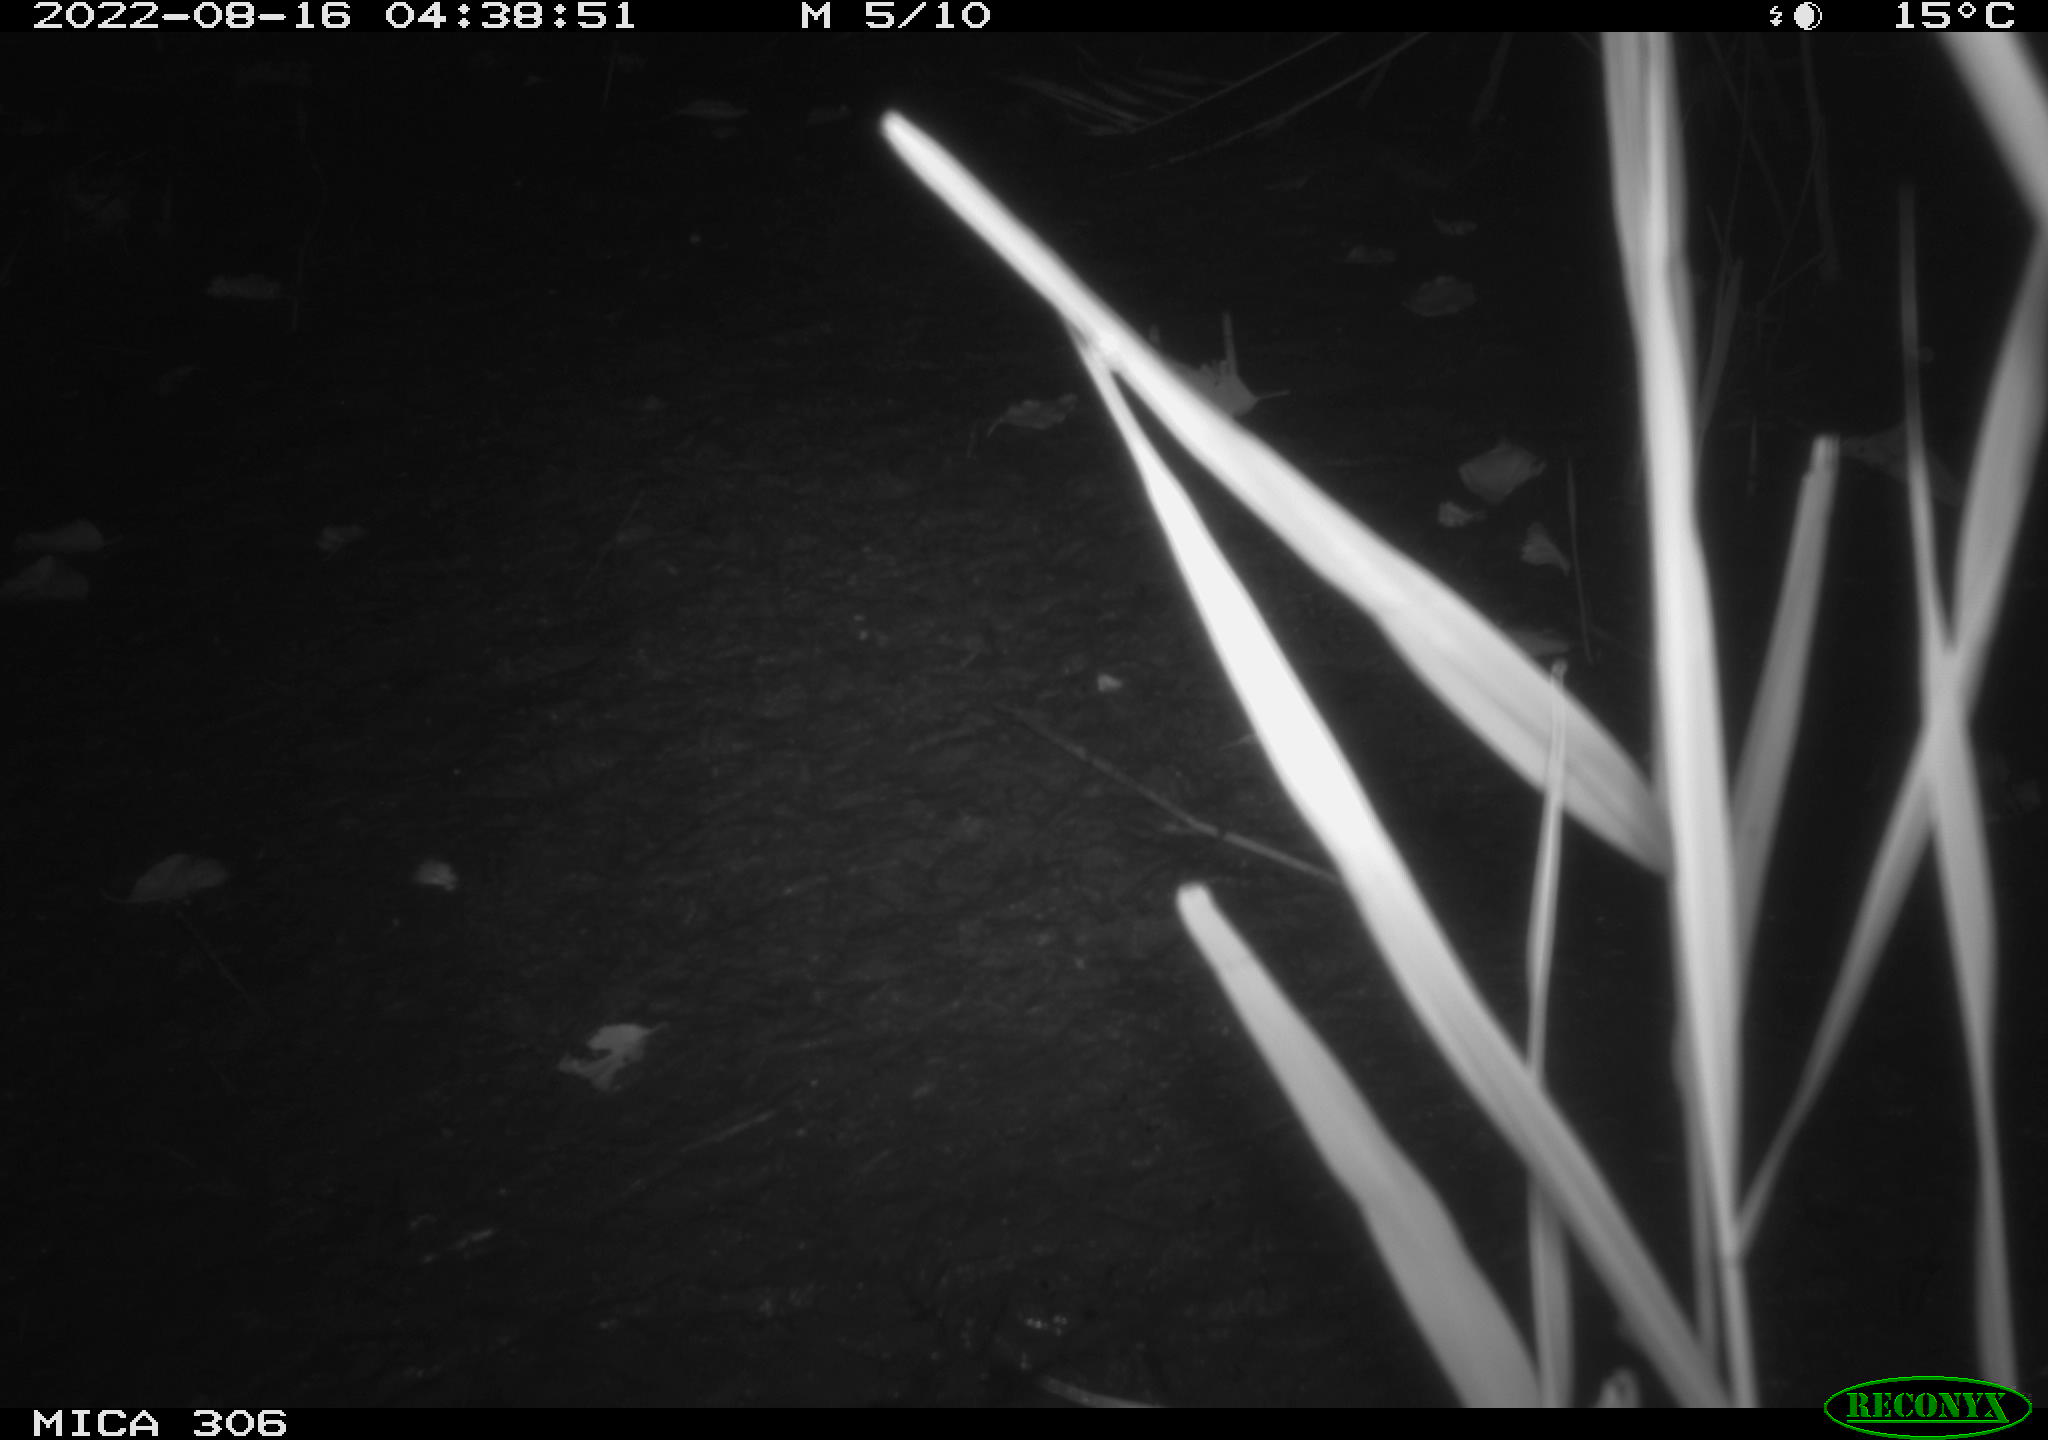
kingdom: Animalia
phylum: Chordata
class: Mammalia
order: Rodentia
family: Muridae
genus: Rattus
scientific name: Rattus norvegicus
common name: Brown rat
